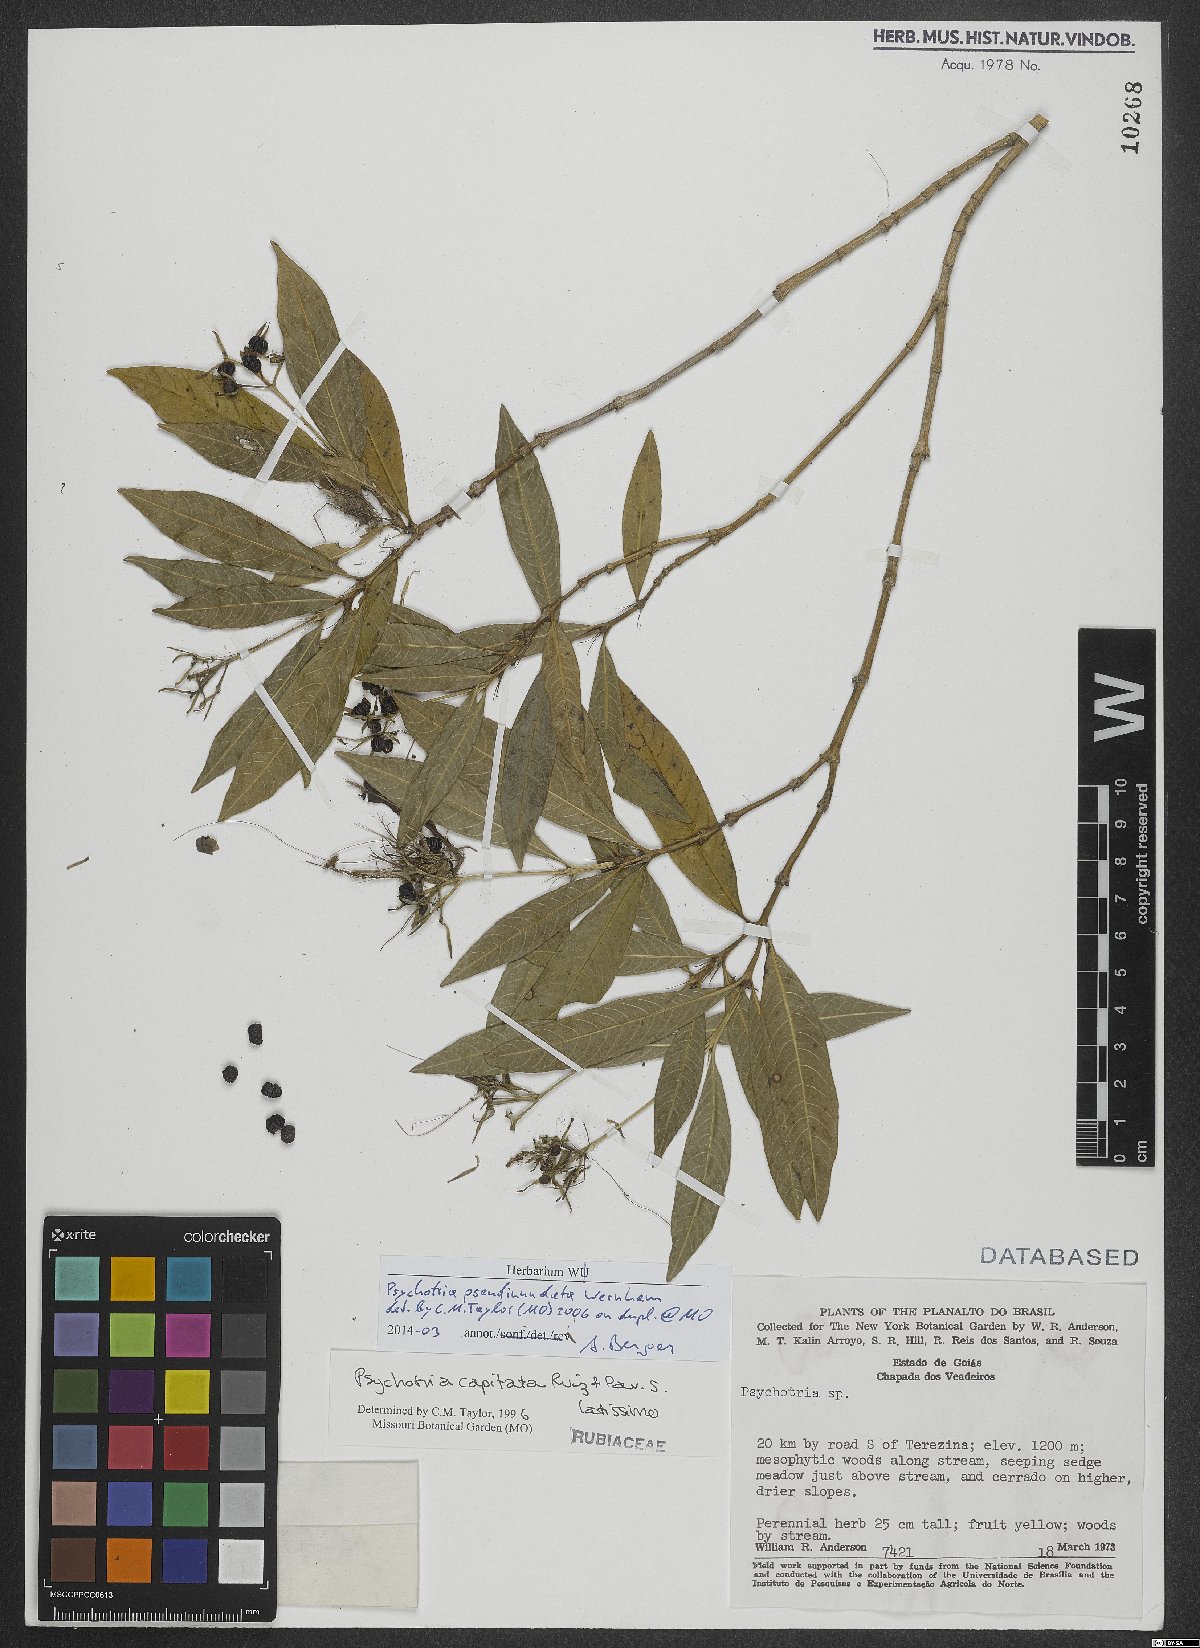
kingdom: Plantae
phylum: Tracheophyta
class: Magnoliopsida
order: Gentianales
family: Rubiaceae
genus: Palicourea
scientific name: Palicourea pseudinundata
